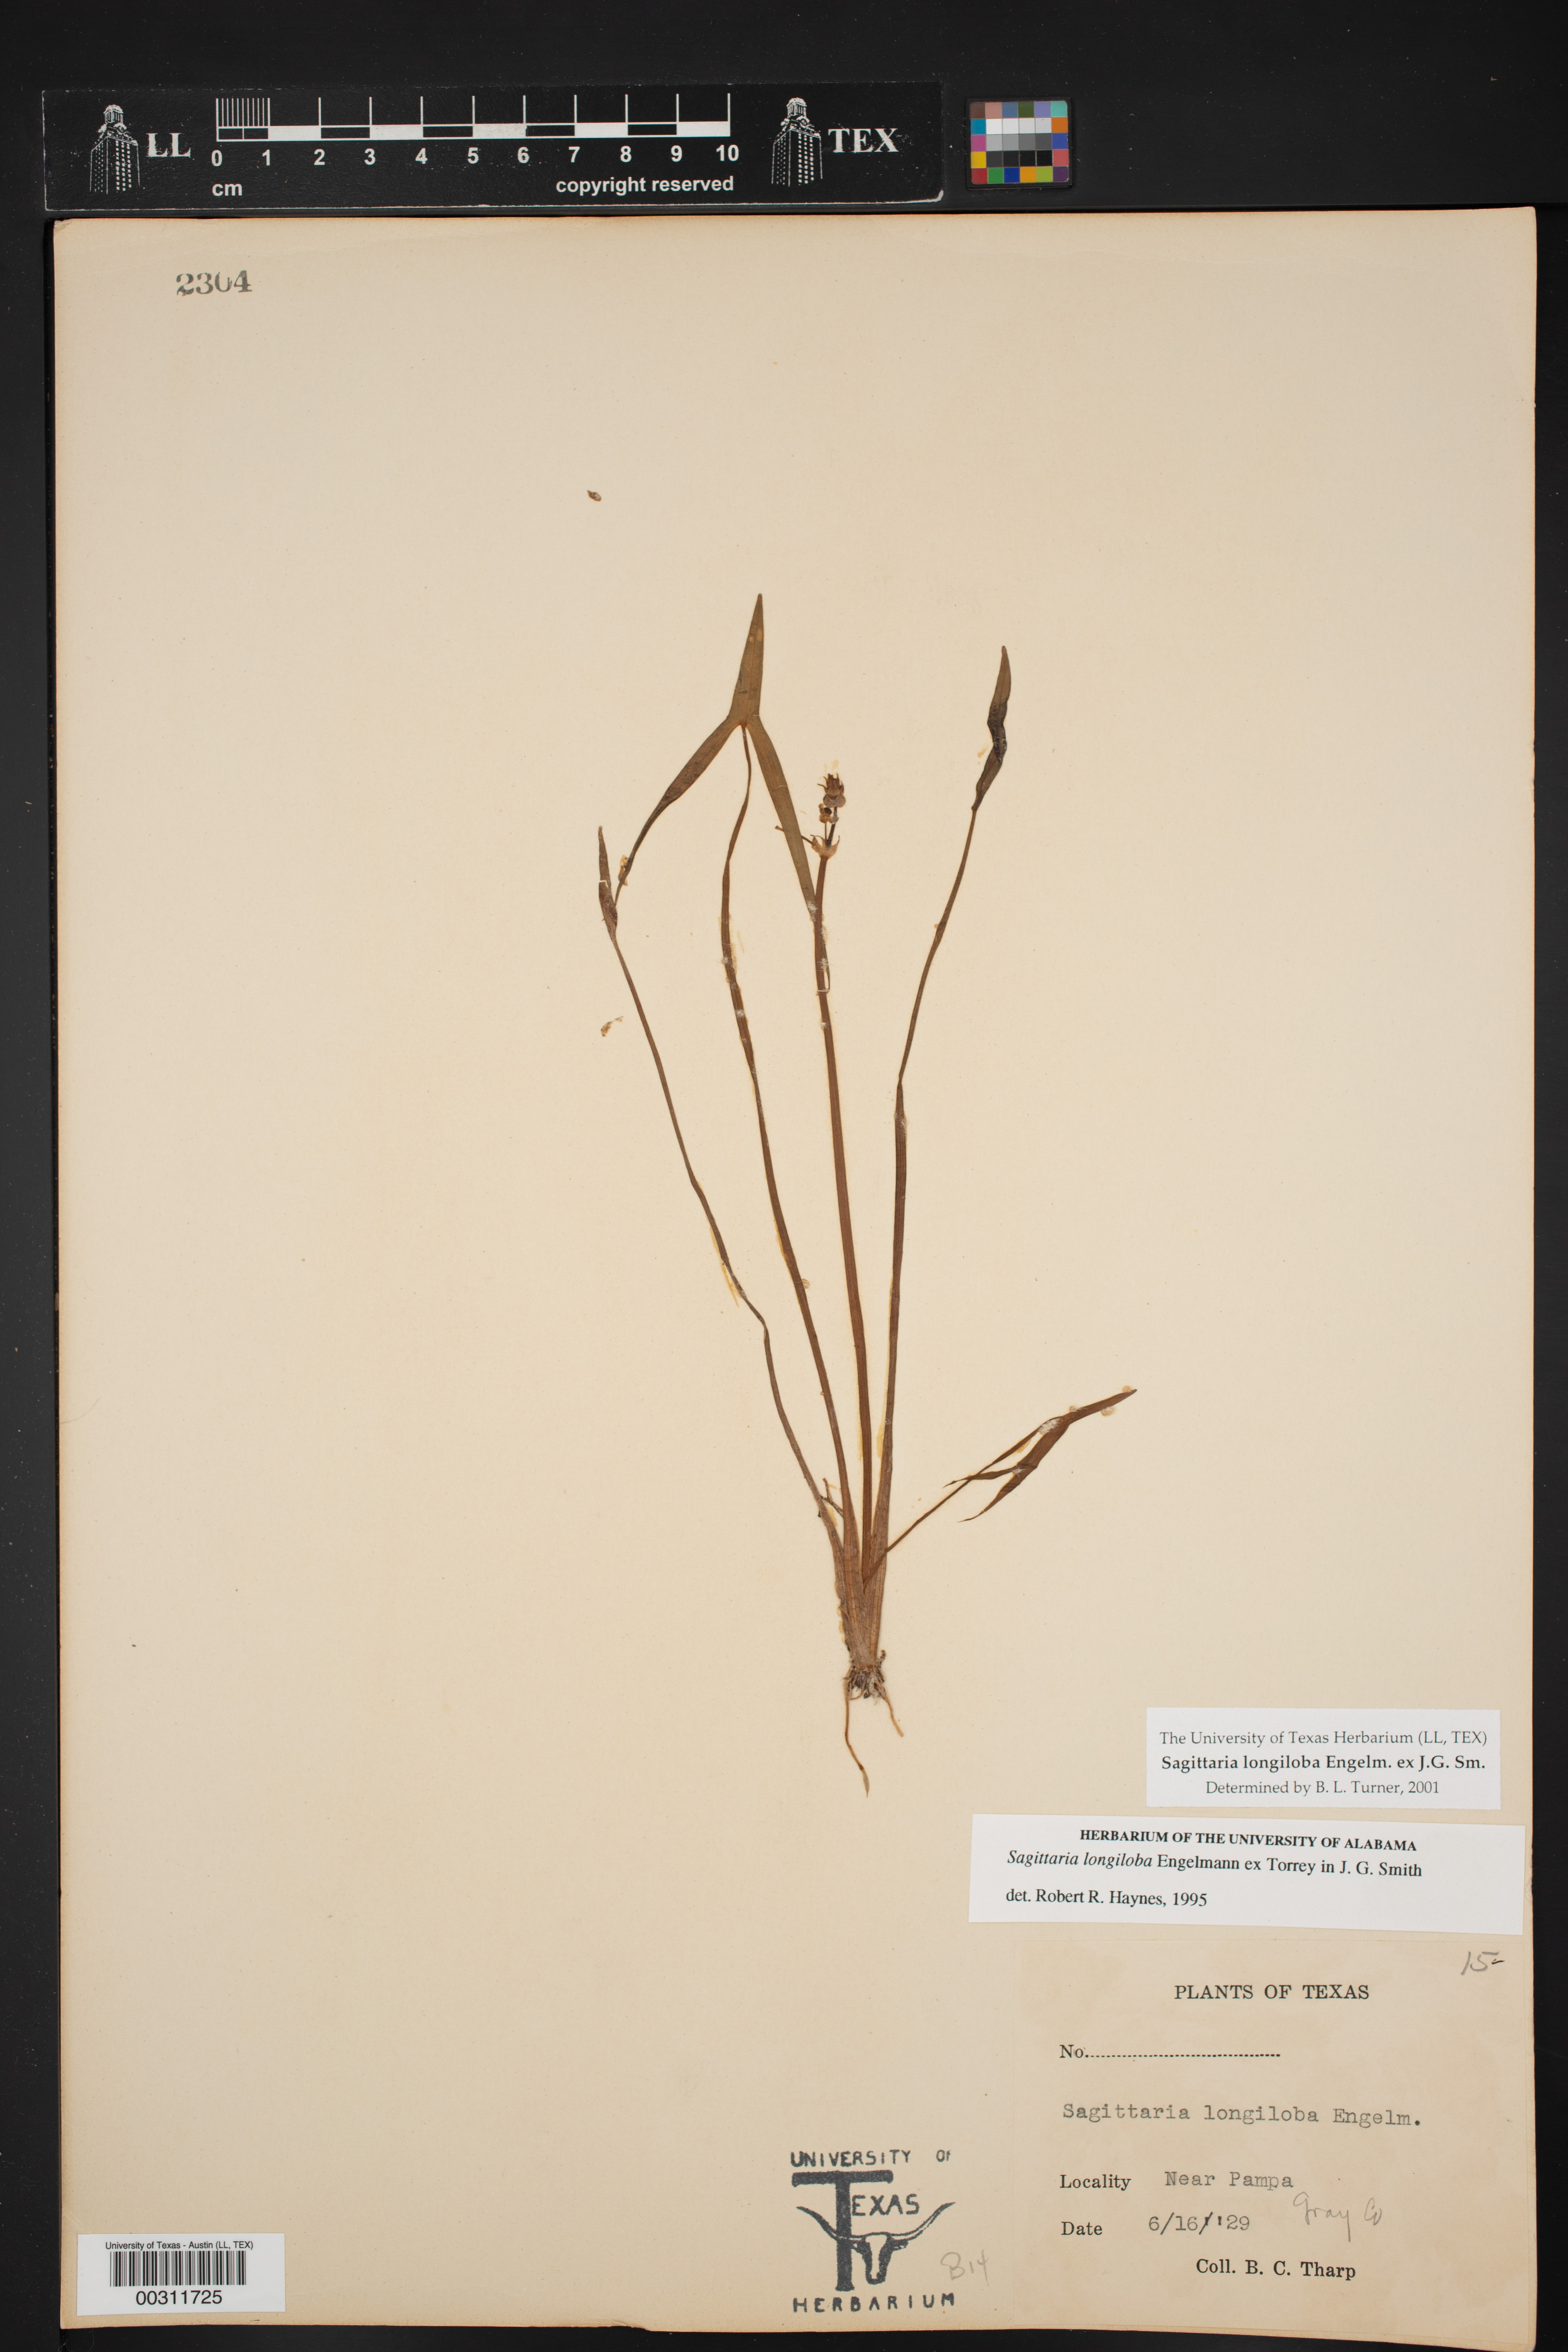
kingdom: Plantae
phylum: Tracheophyta
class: Liliopsida
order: Alismatales
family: Alismataceae
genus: Sagittaria
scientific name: Sagittaria longiloba
